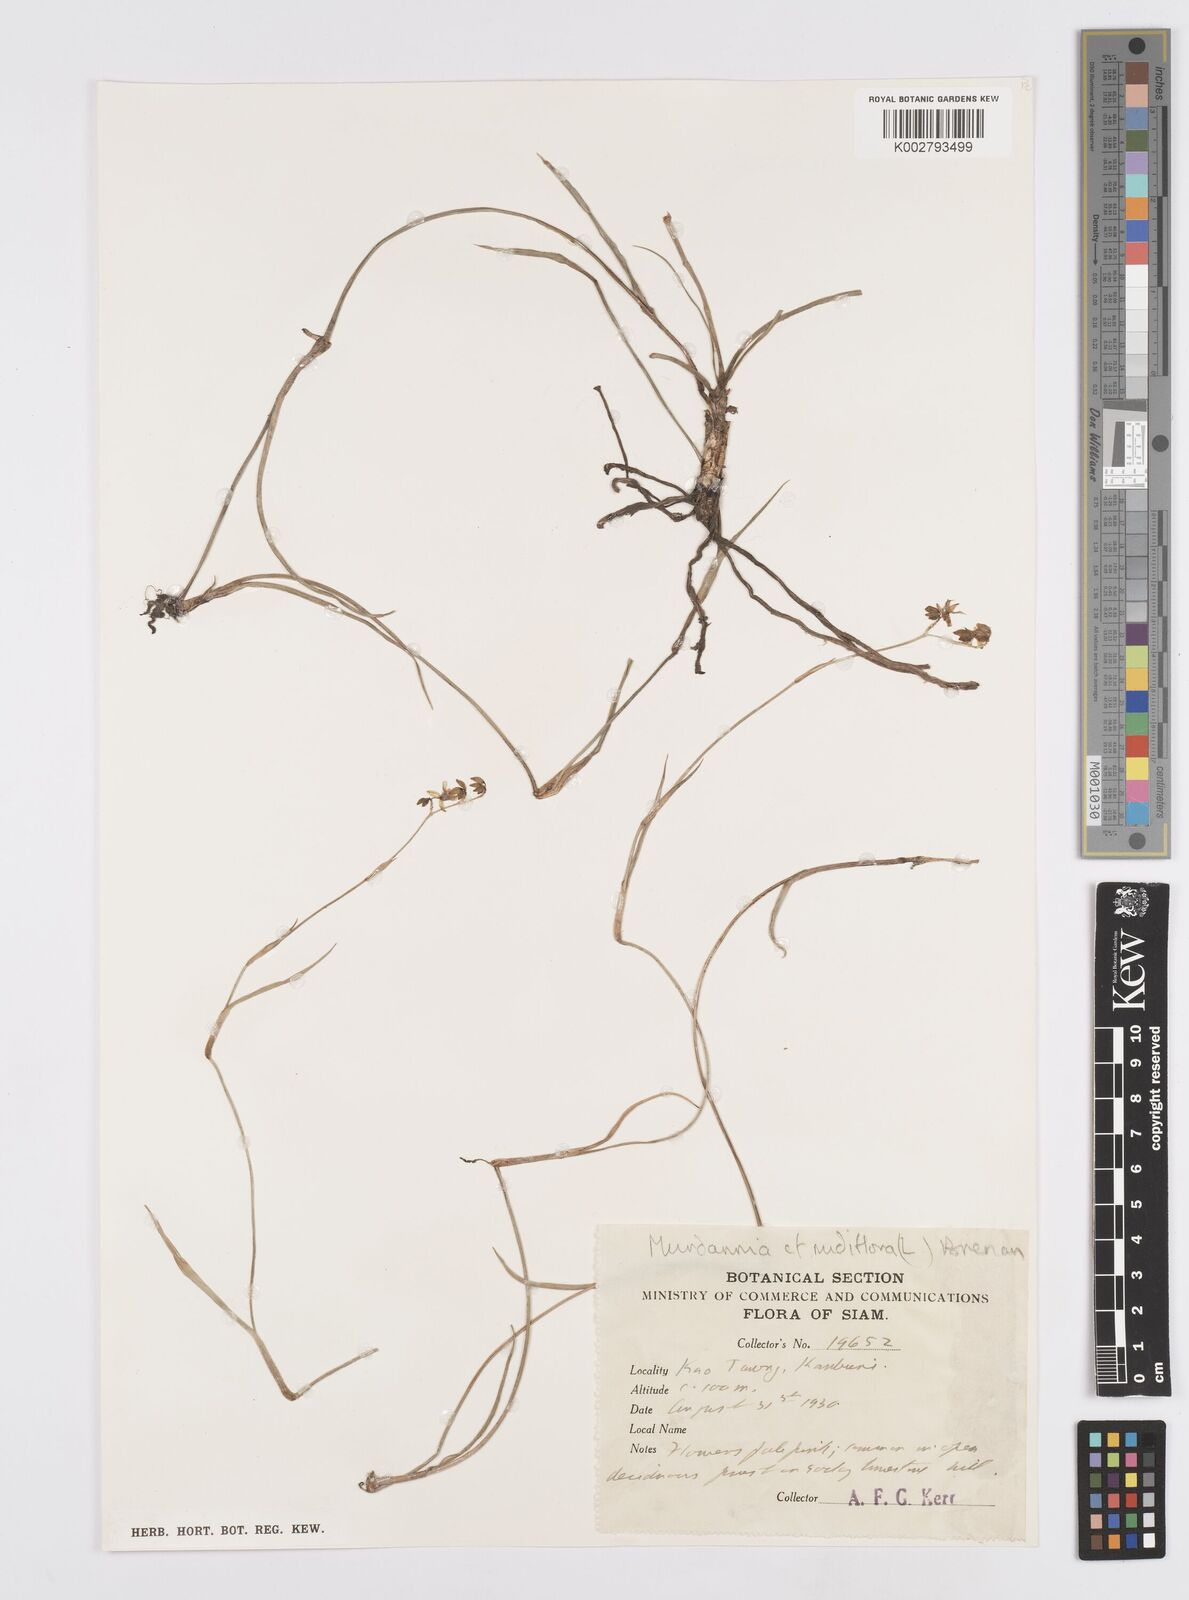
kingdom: Plantae
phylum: Tracheophyta
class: Liliopsida
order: Commelinales
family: Commelinaceae
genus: Murdannia
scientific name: Murdannia nudiflora
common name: Nakedstem dewflower
